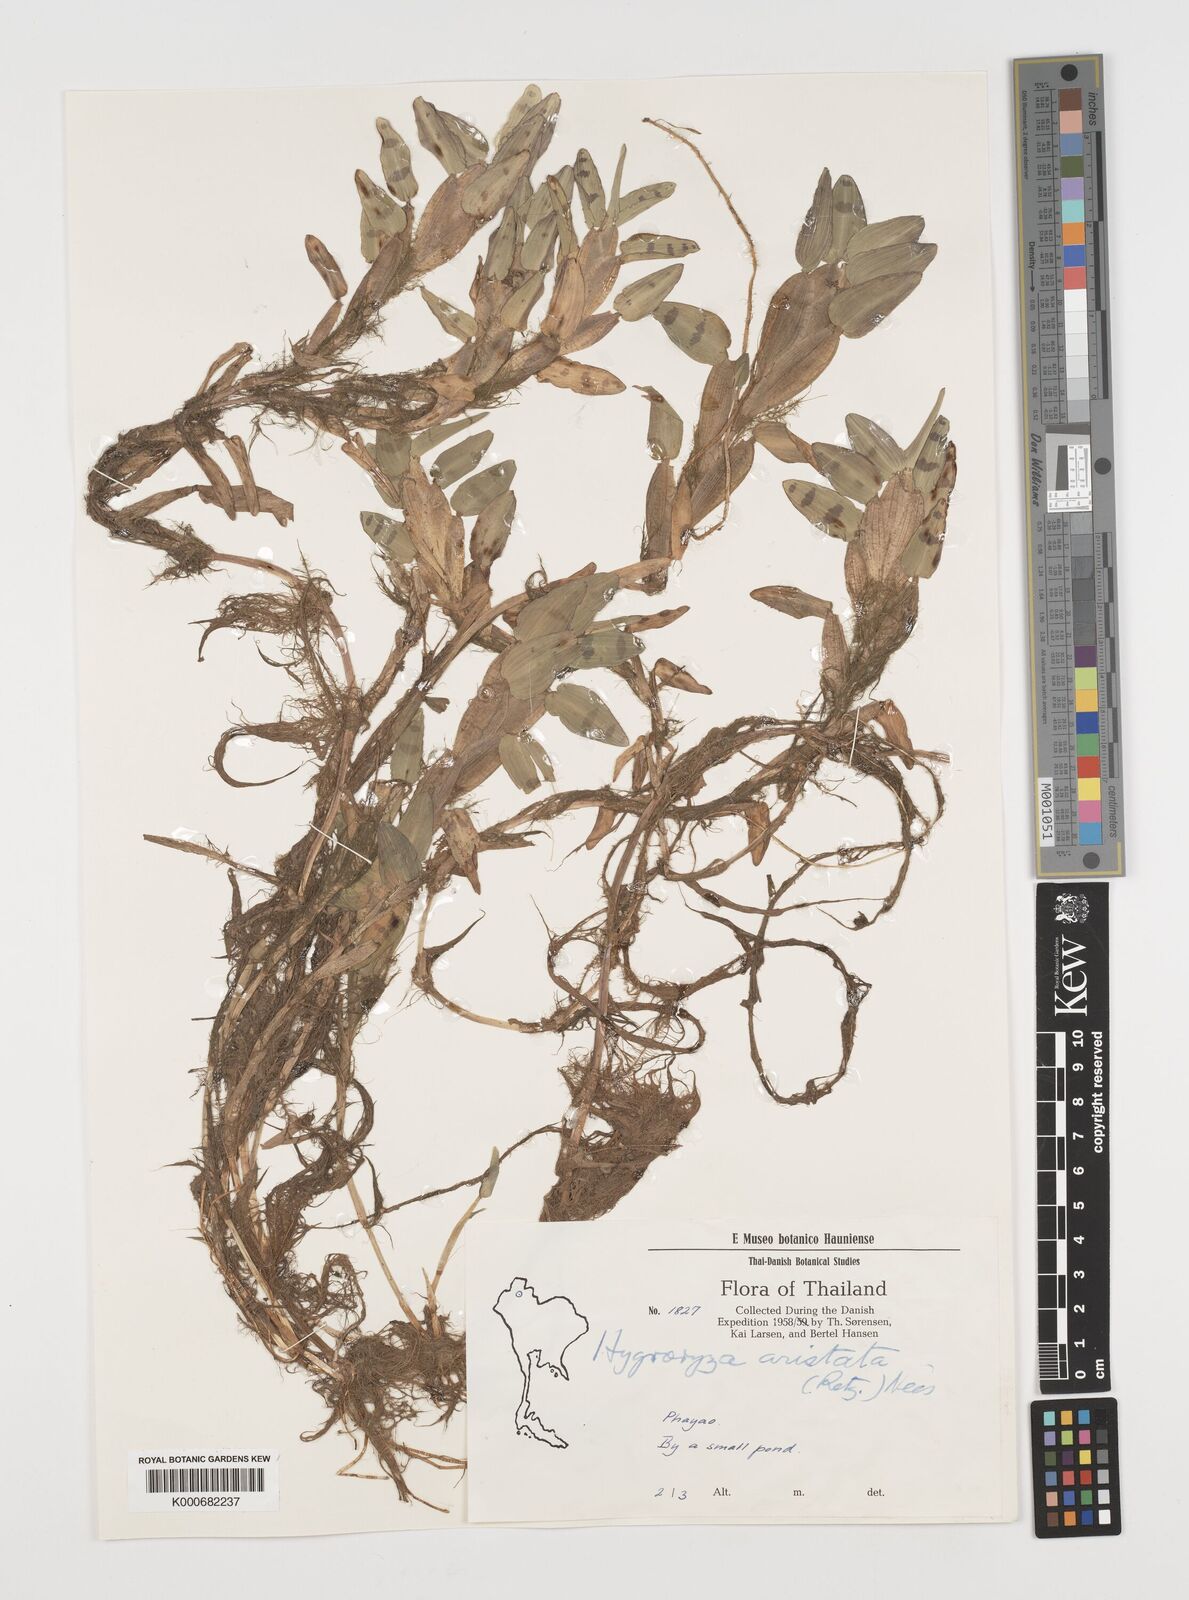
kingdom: Plantae
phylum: Tracheophyta
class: Liliopsida
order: Poales
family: Poaceae
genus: Hygroryza
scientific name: Hygroryza
